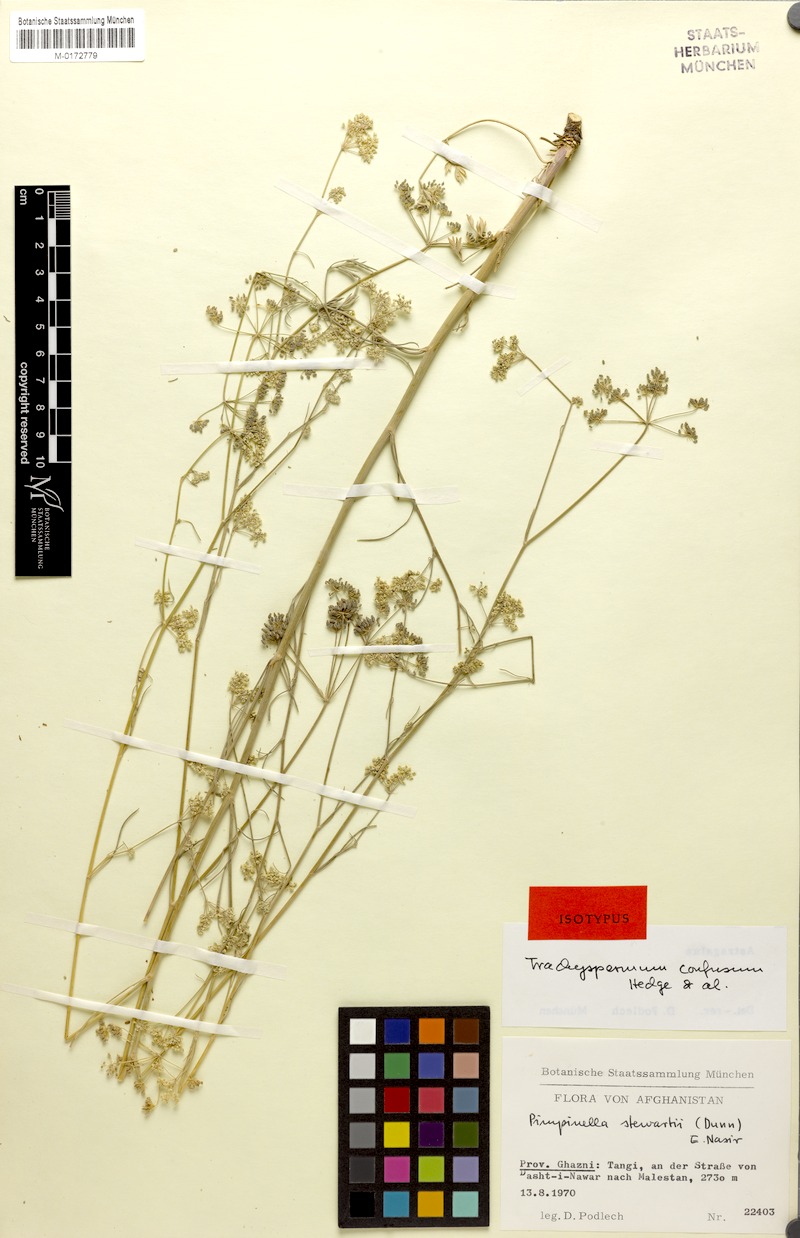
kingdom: Plantae
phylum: Tracheophyta
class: Magnoliopsida
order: Apiales
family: Apiaceae
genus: Trachyspermum
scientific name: Trachyspermum confusum
